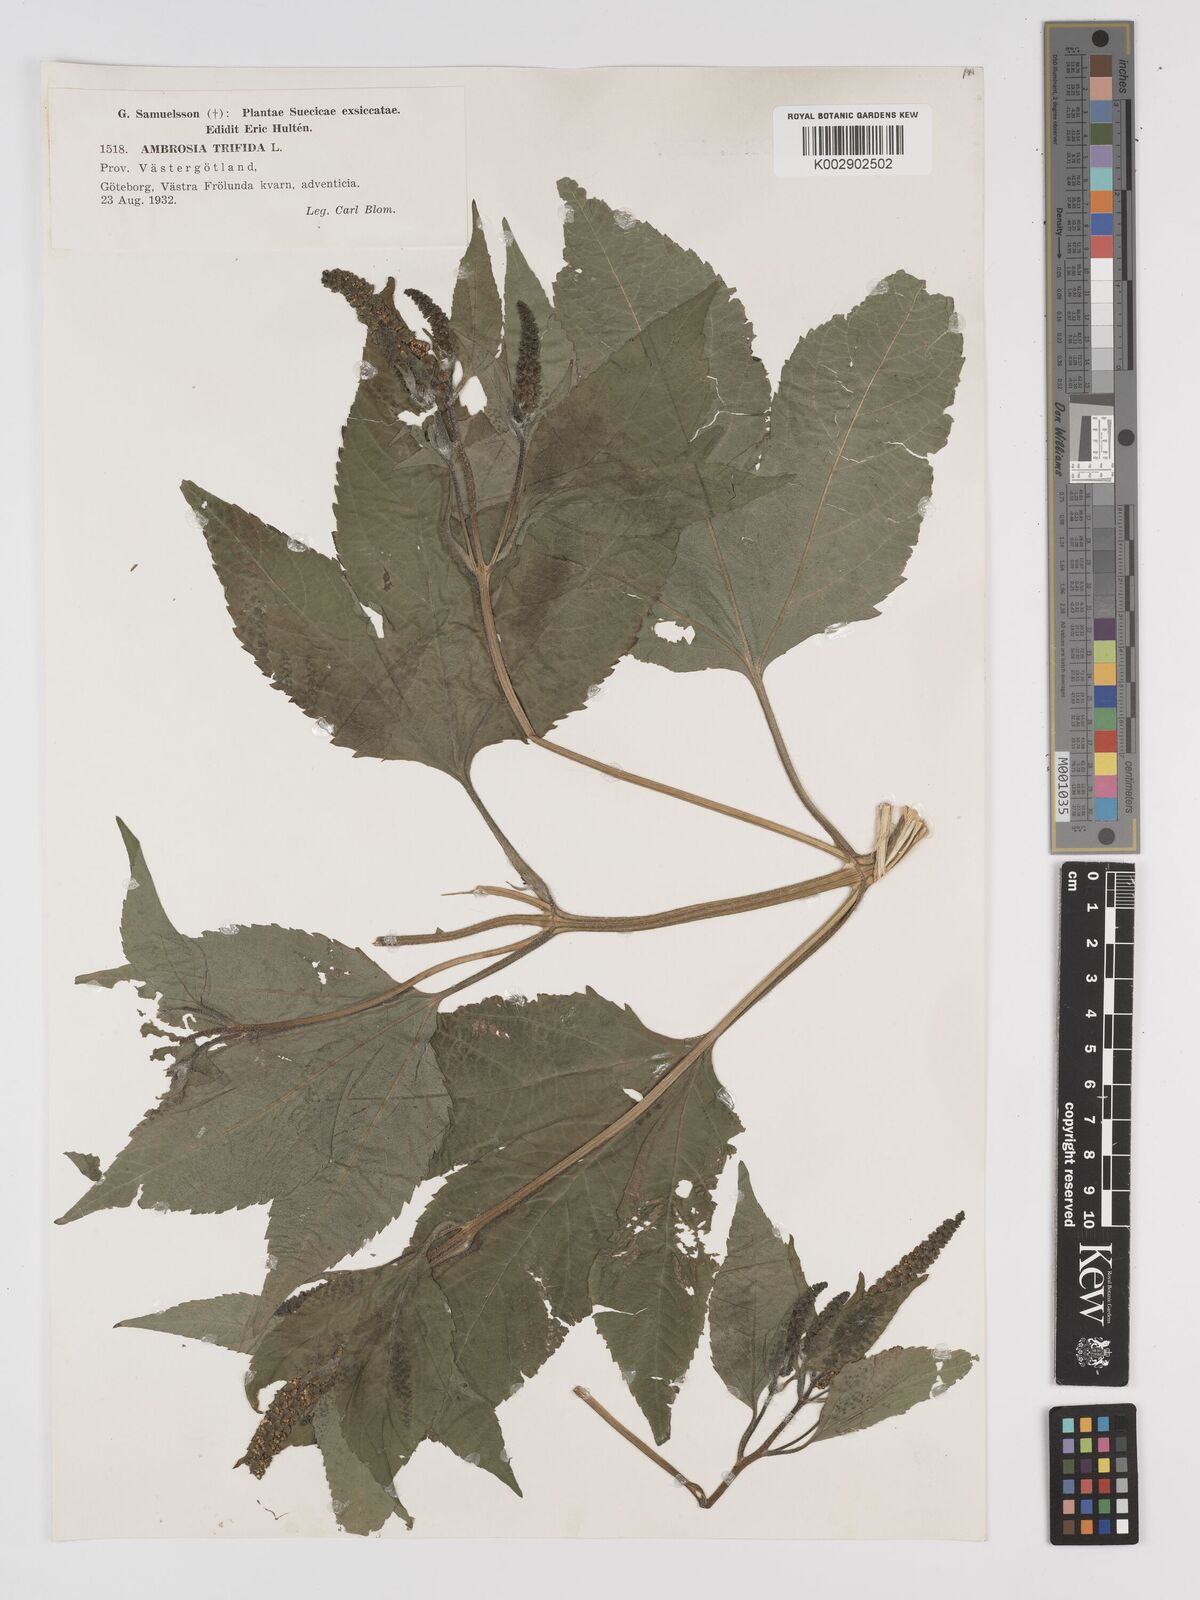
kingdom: Plantae
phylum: Tracheophyta
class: Magnoliopsida
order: Asterales
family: Asteraceae
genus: Ambrosia
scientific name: Ambrosia trifida
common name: Giant ragweed
